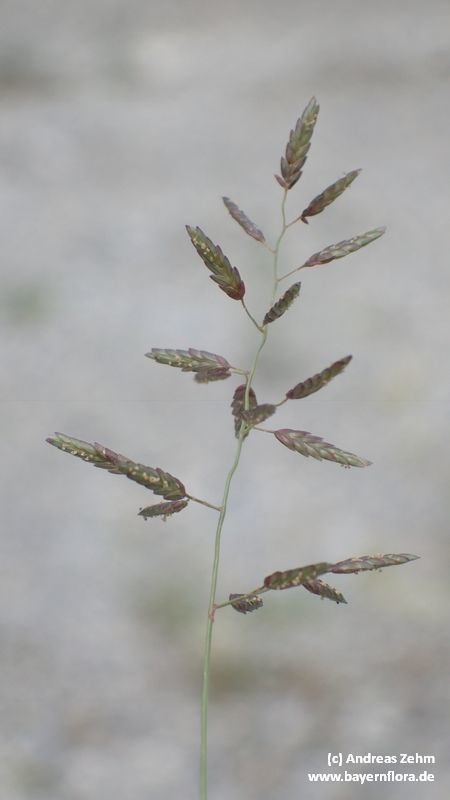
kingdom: Plantae
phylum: Tracheophyta
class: Liliopsida
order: Poales
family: Poaceae
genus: Eragrostis
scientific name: Eragrostis minor
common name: Small love-grass
